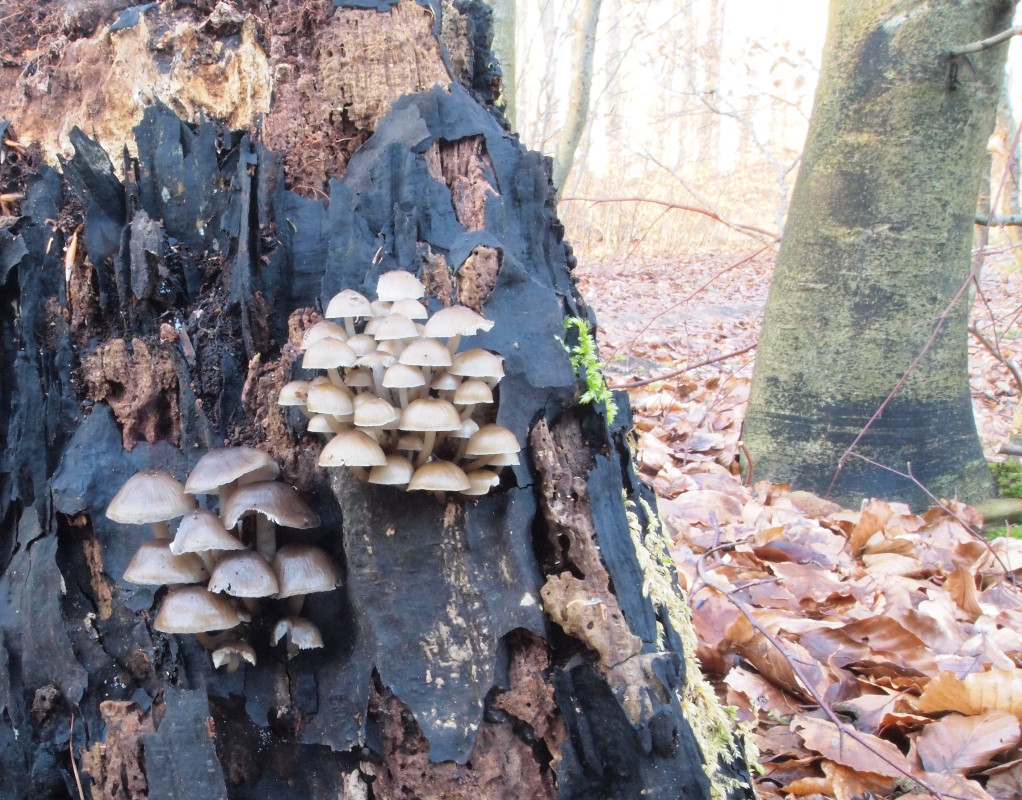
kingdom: Fungi
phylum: Basidiomycota
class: Agaricomycetes
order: Agaricales
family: Mycenaceae
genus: Mycena
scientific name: Mycena tintinnabulum
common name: vinter-huesvamp
